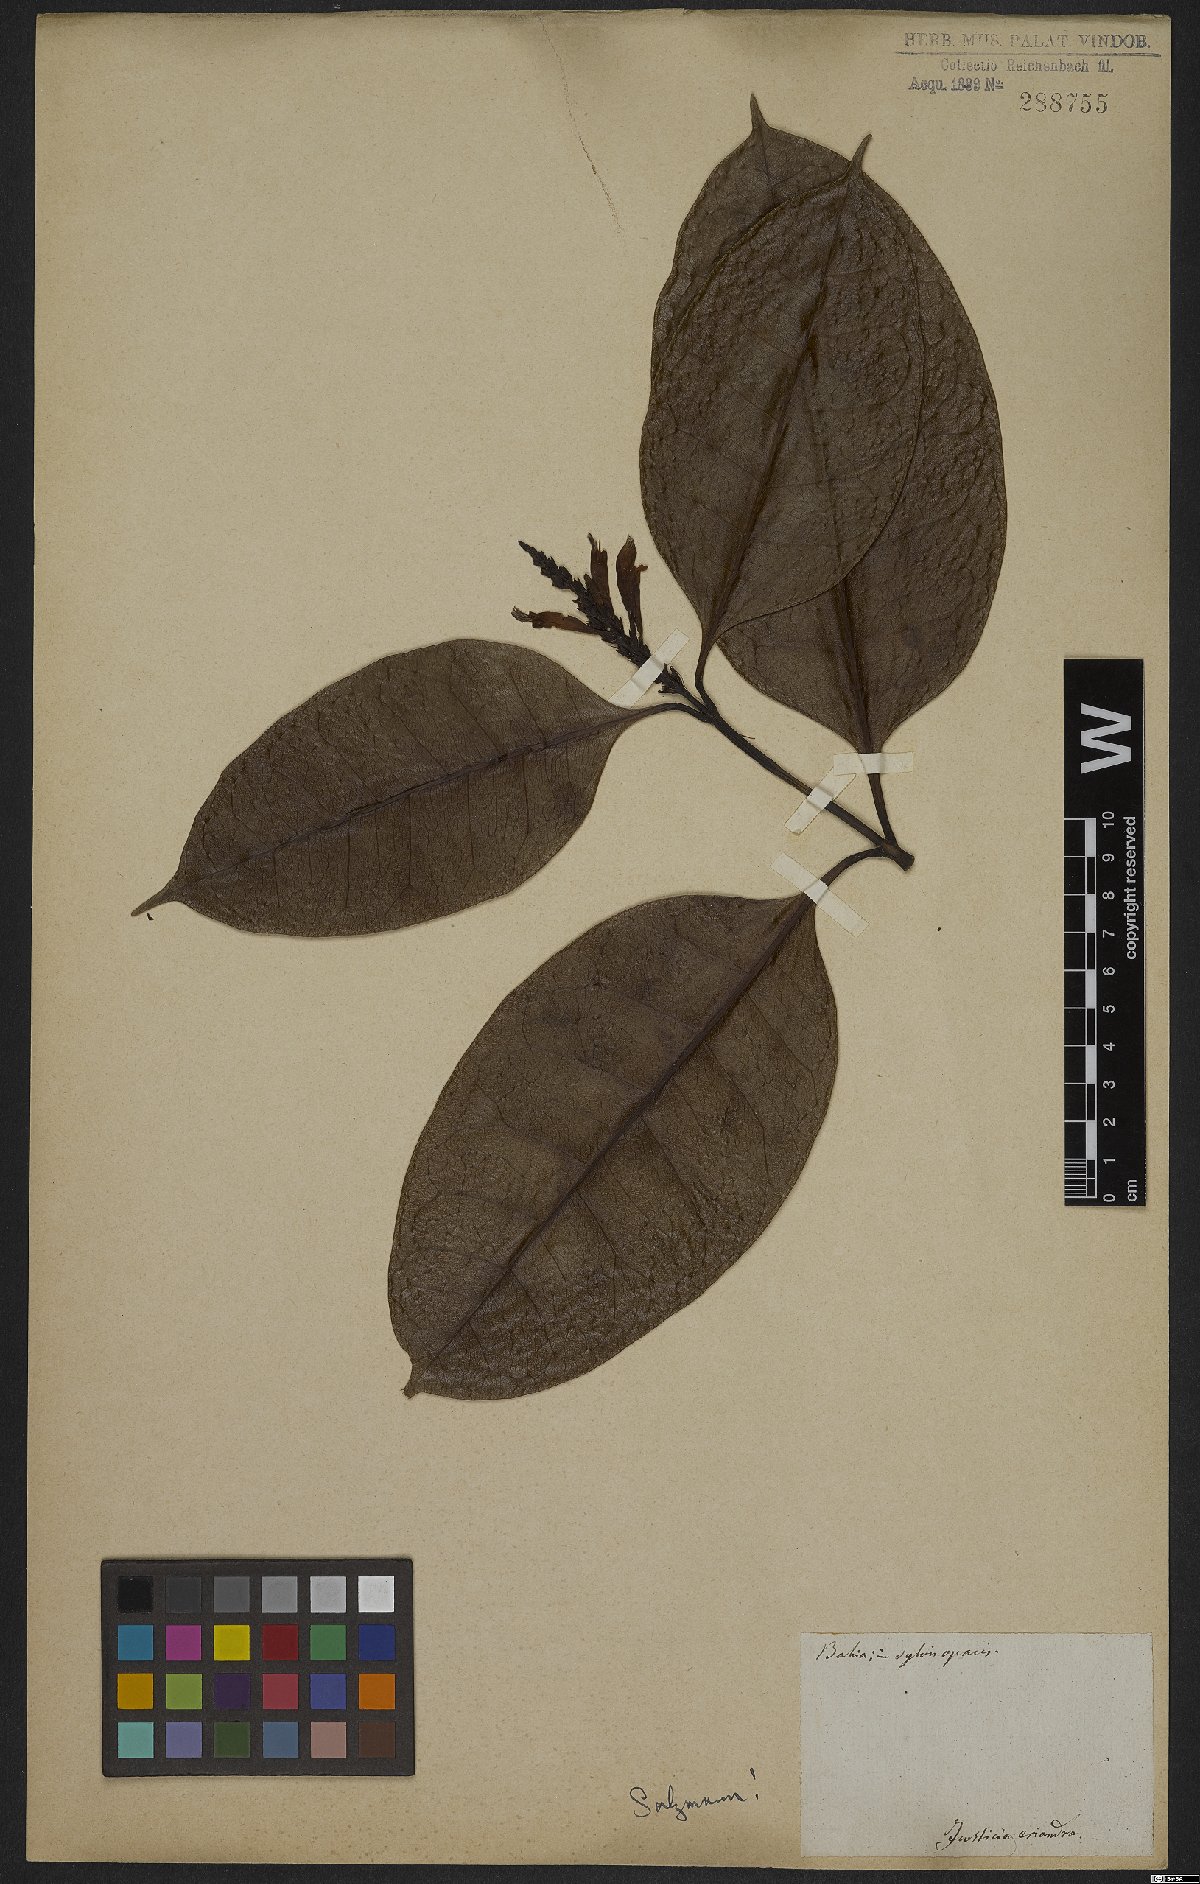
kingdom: Plantae
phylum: Tracheophyta
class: Magnoliopsida
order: Lamiales
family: Acanthaceae
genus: Aphelandra
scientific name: Aphelandra nitida
